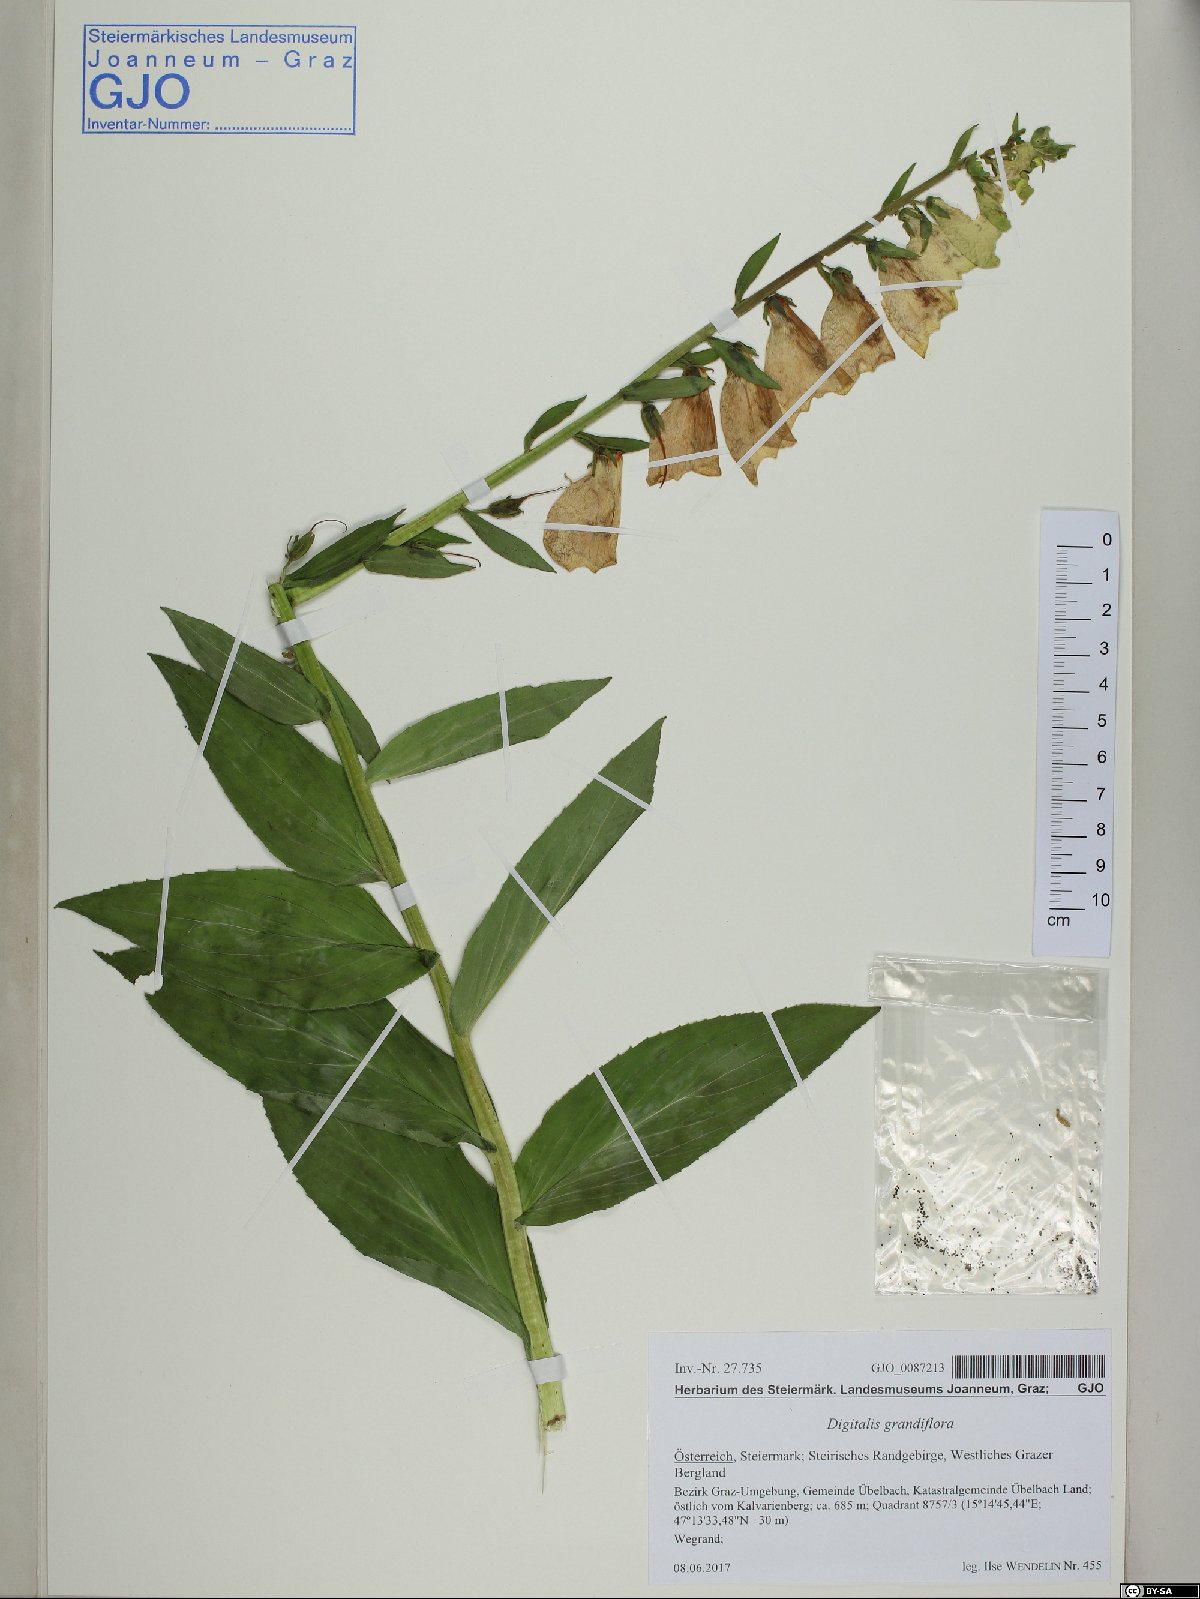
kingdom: Plantae
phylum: Tracheophyta
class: Magnoliopsida
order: Lamiales
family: Plantaginaceae
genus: Digitalis
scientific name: Digitalis grandiflora
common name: Yellow foxglove
